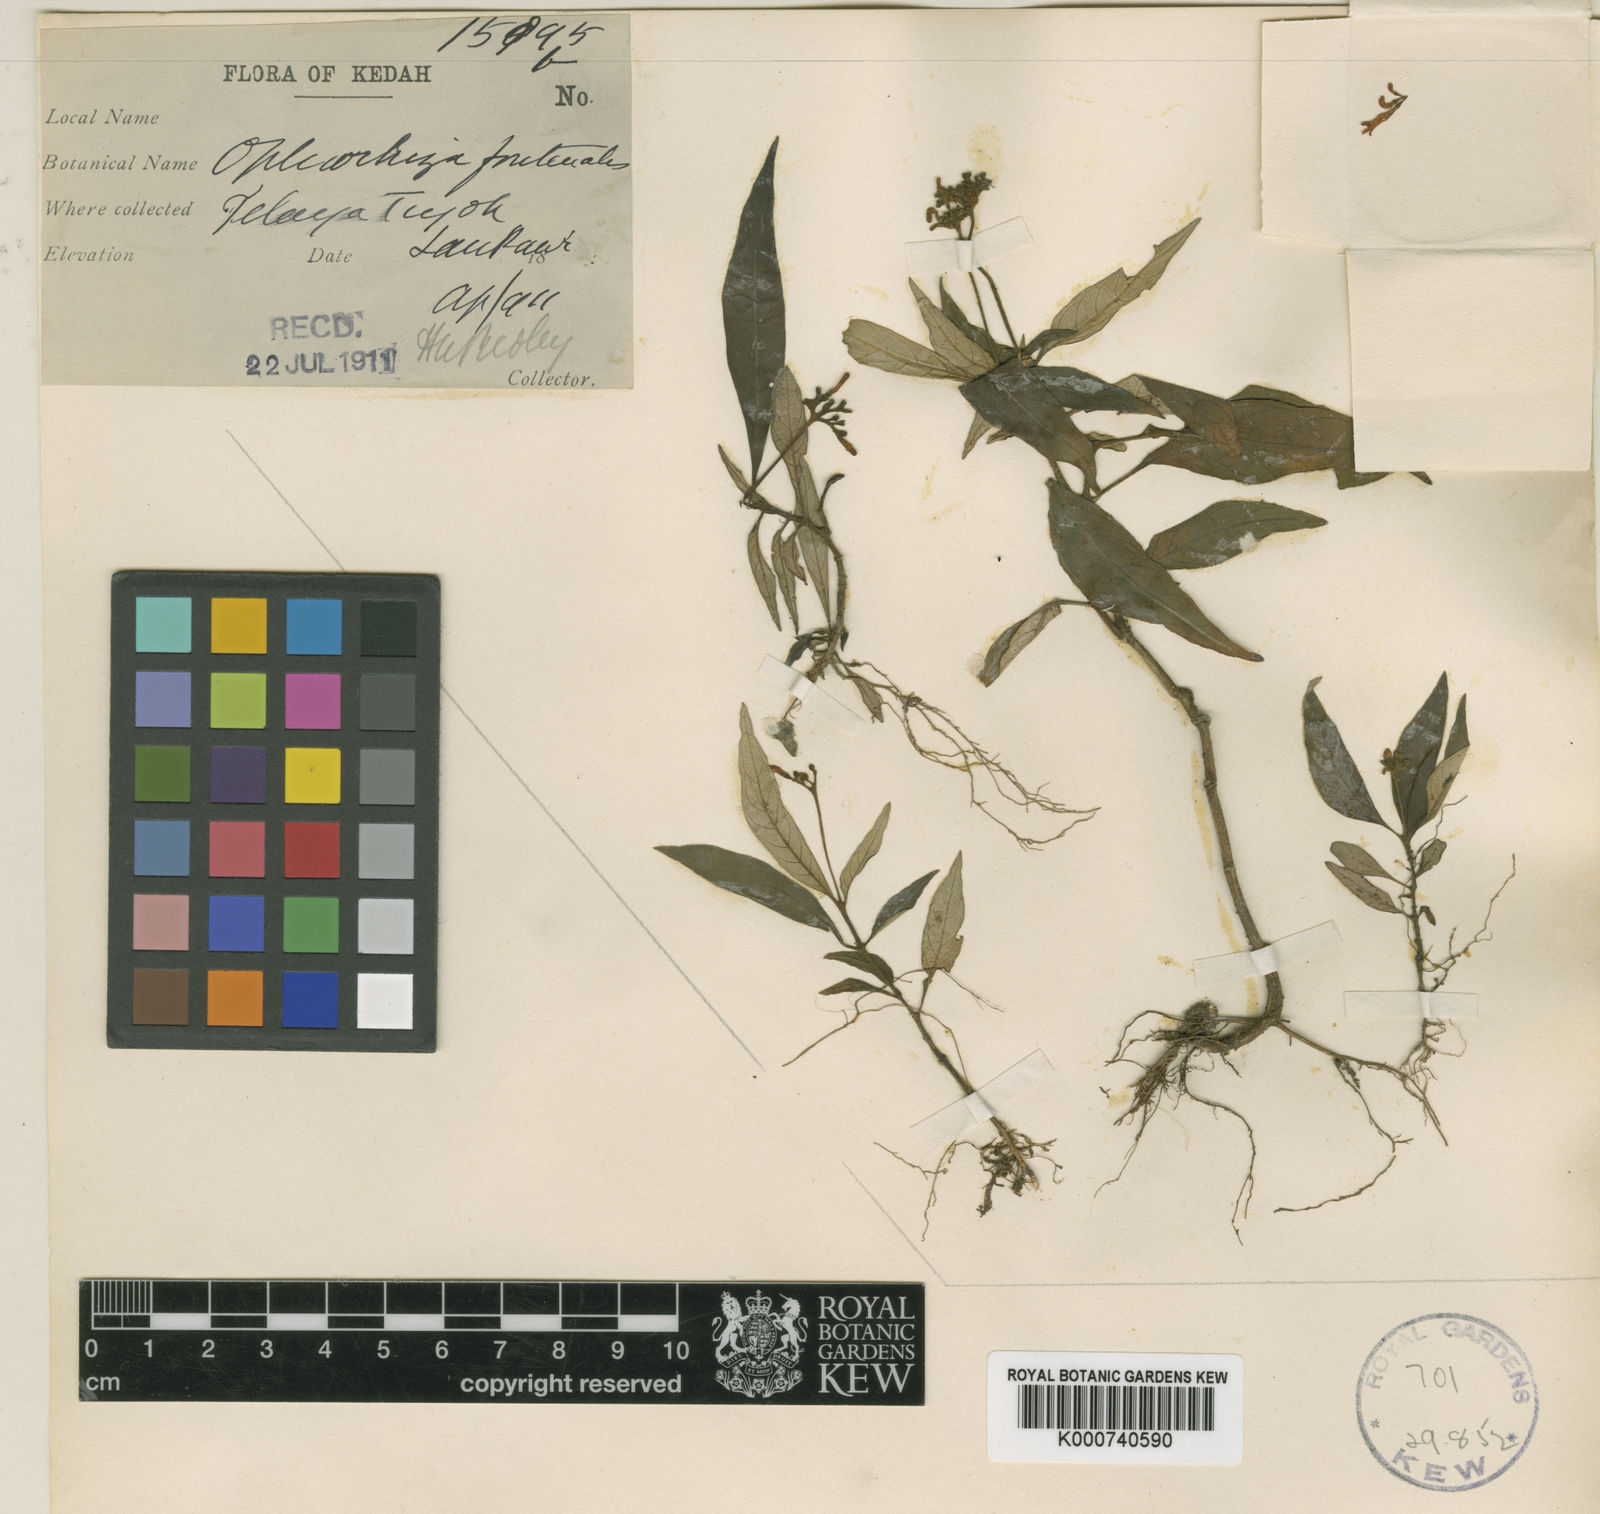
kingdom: Plantae
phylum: Tracheophyta
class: Magnoliopsida
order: Gentianales
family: Rubiaceae
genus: Ophiorrhiza
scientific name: Ophiorrhiza fontinalis
